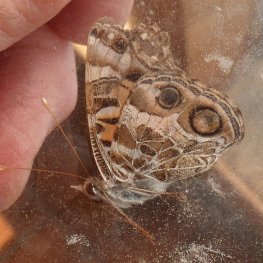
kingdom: Animalia
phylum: Arthropoda
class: Insecta
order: Lepidoptera
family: Nymphalidae
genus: Vanessa
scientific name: Vanessa virginiensis
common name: American Lady
